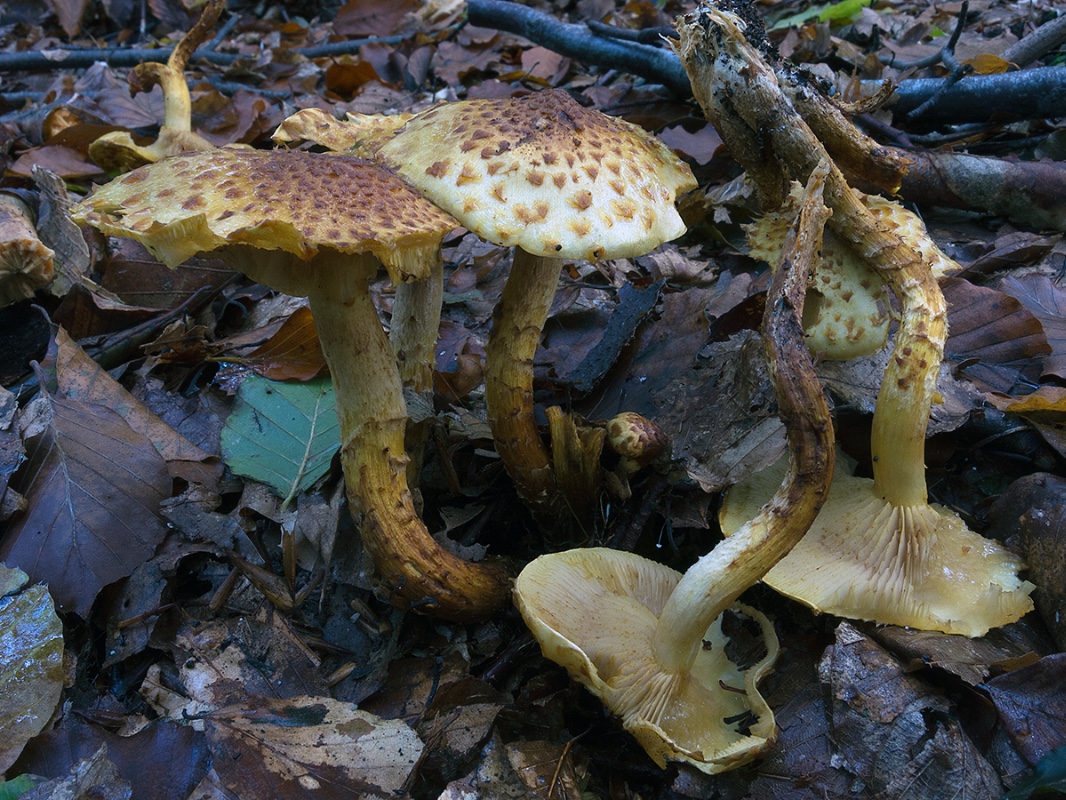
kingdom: Fungi
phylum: Basidiomycota
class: Agaricomycetes
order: Agaricales
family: Strophariaceae
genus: Pholiota
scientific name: Pholiota jahnii
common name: slimet skælhat
